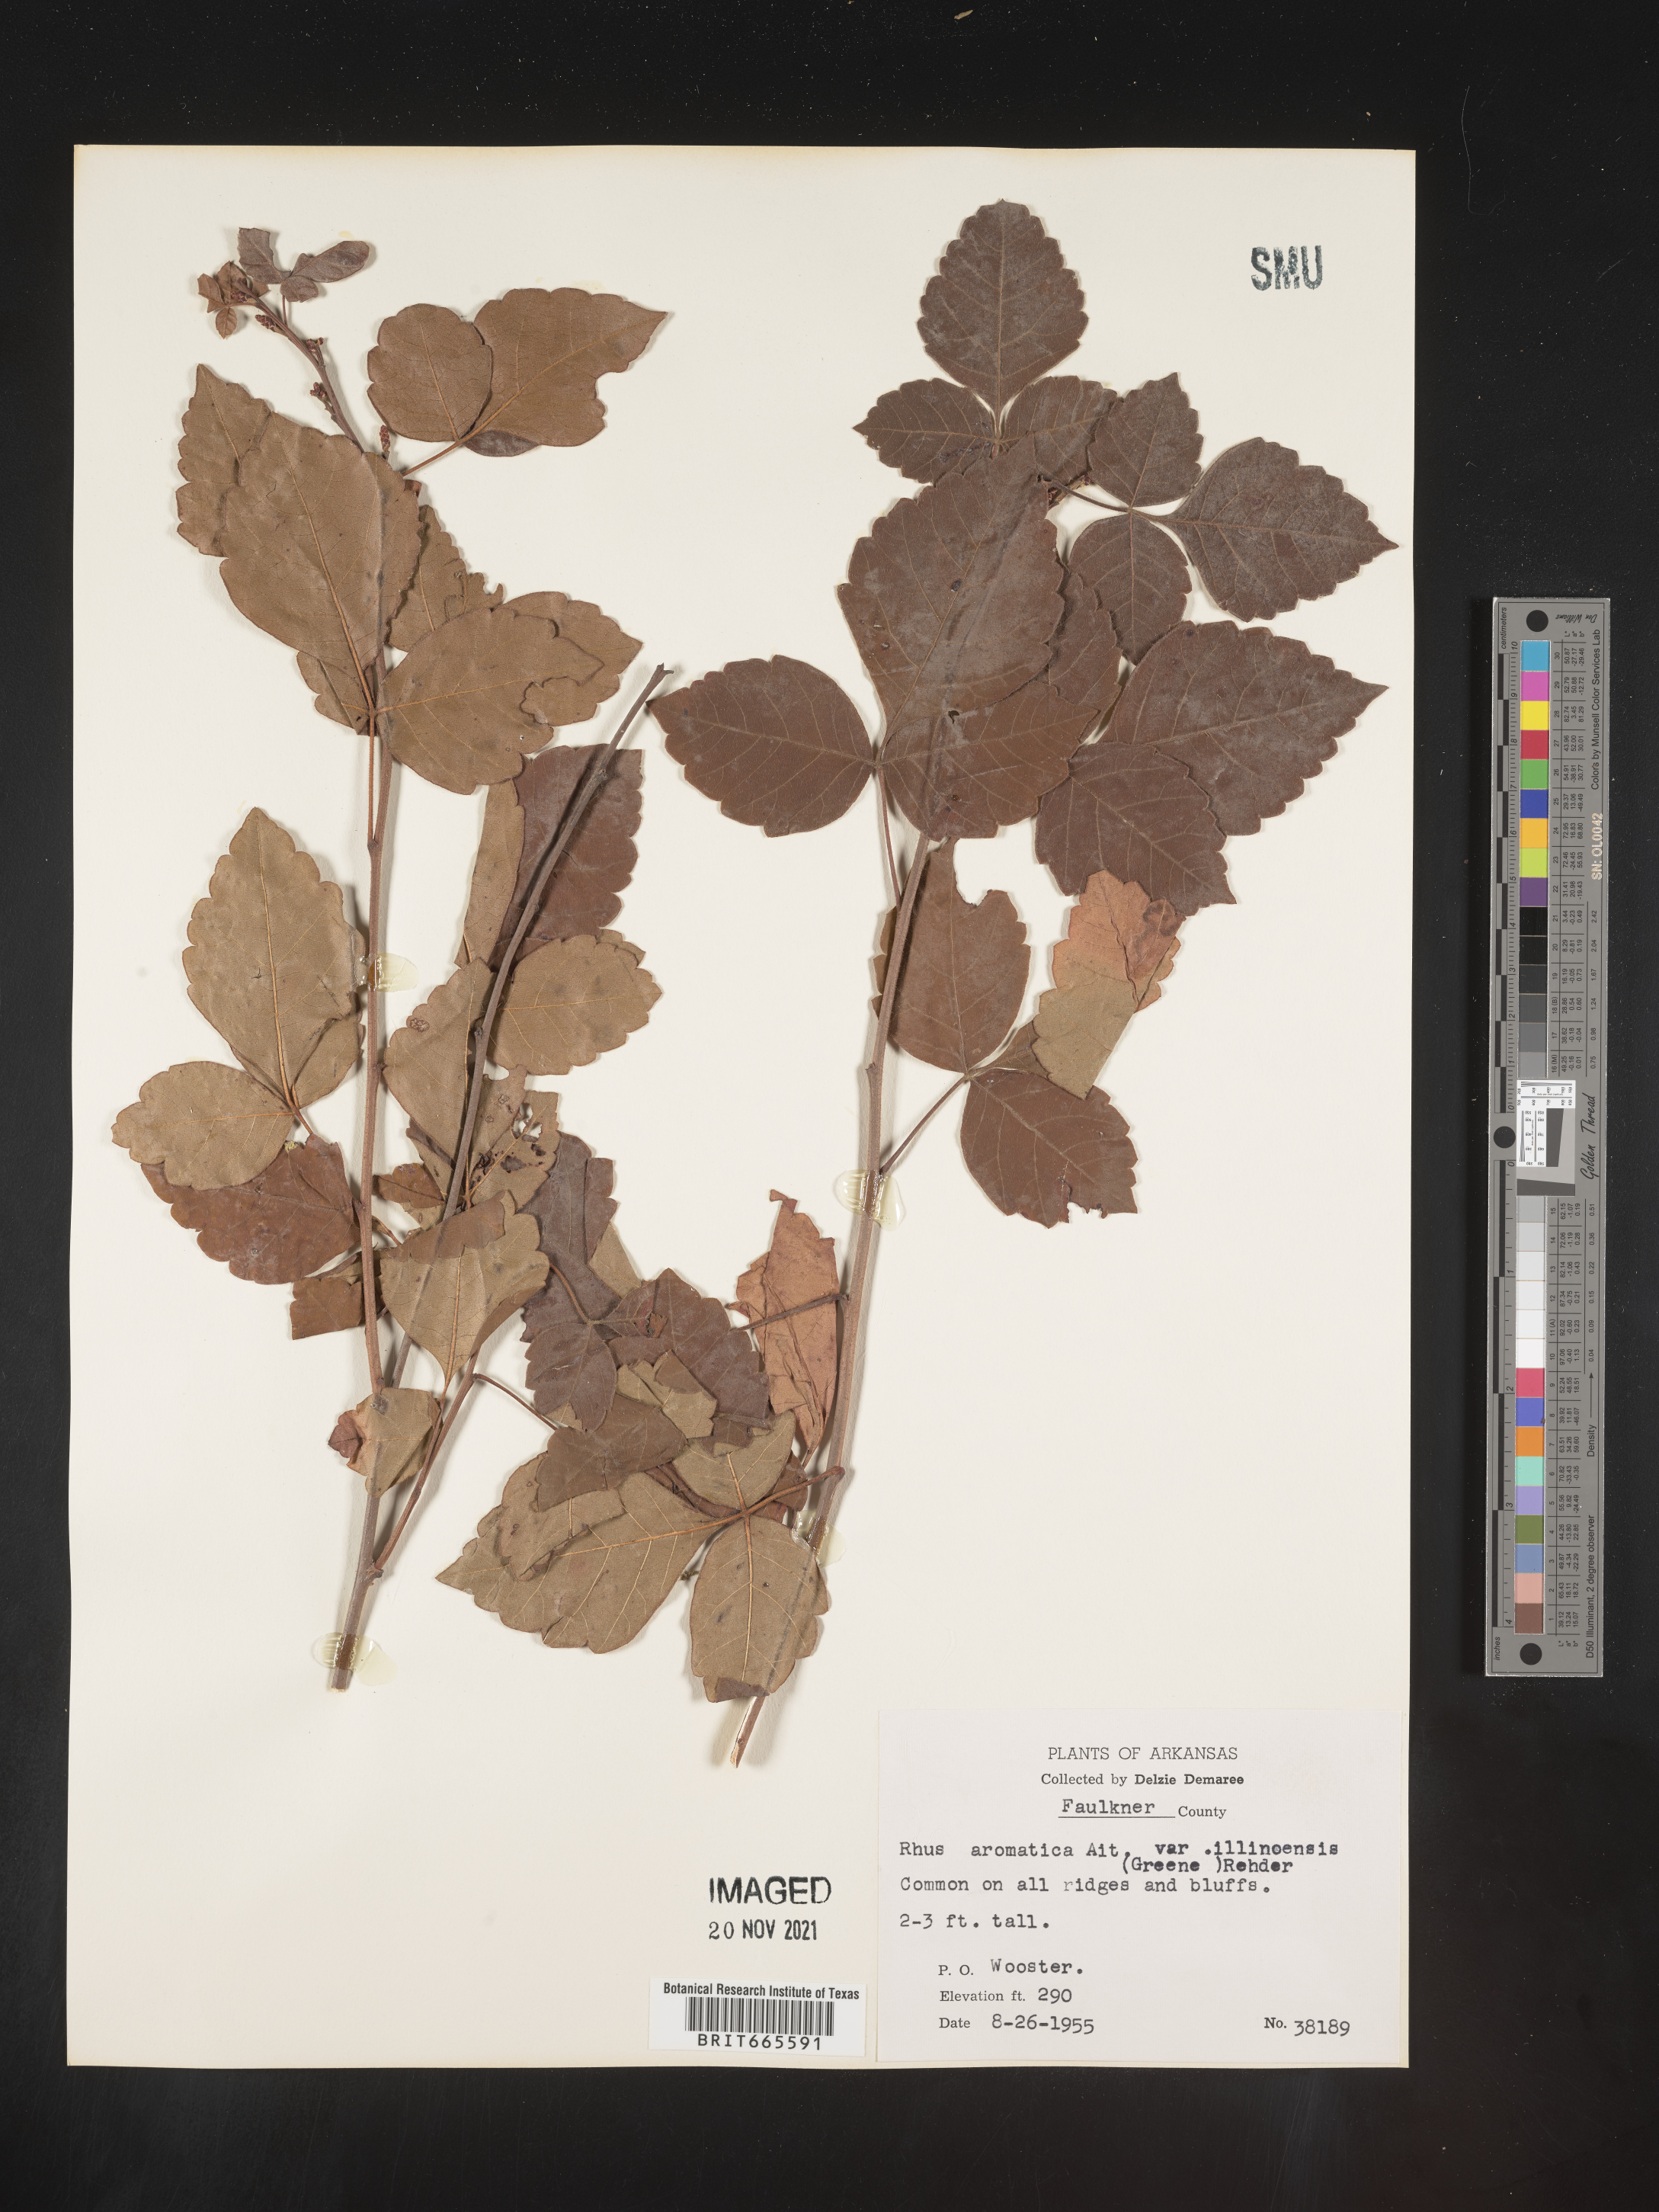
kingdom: Plantae
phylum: Tracheophyta
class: Magnoliopsida
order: Sapindales
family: Anacardiaceae
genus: Rhus
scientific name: Rhus aromatica
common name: Aromatic sumac
